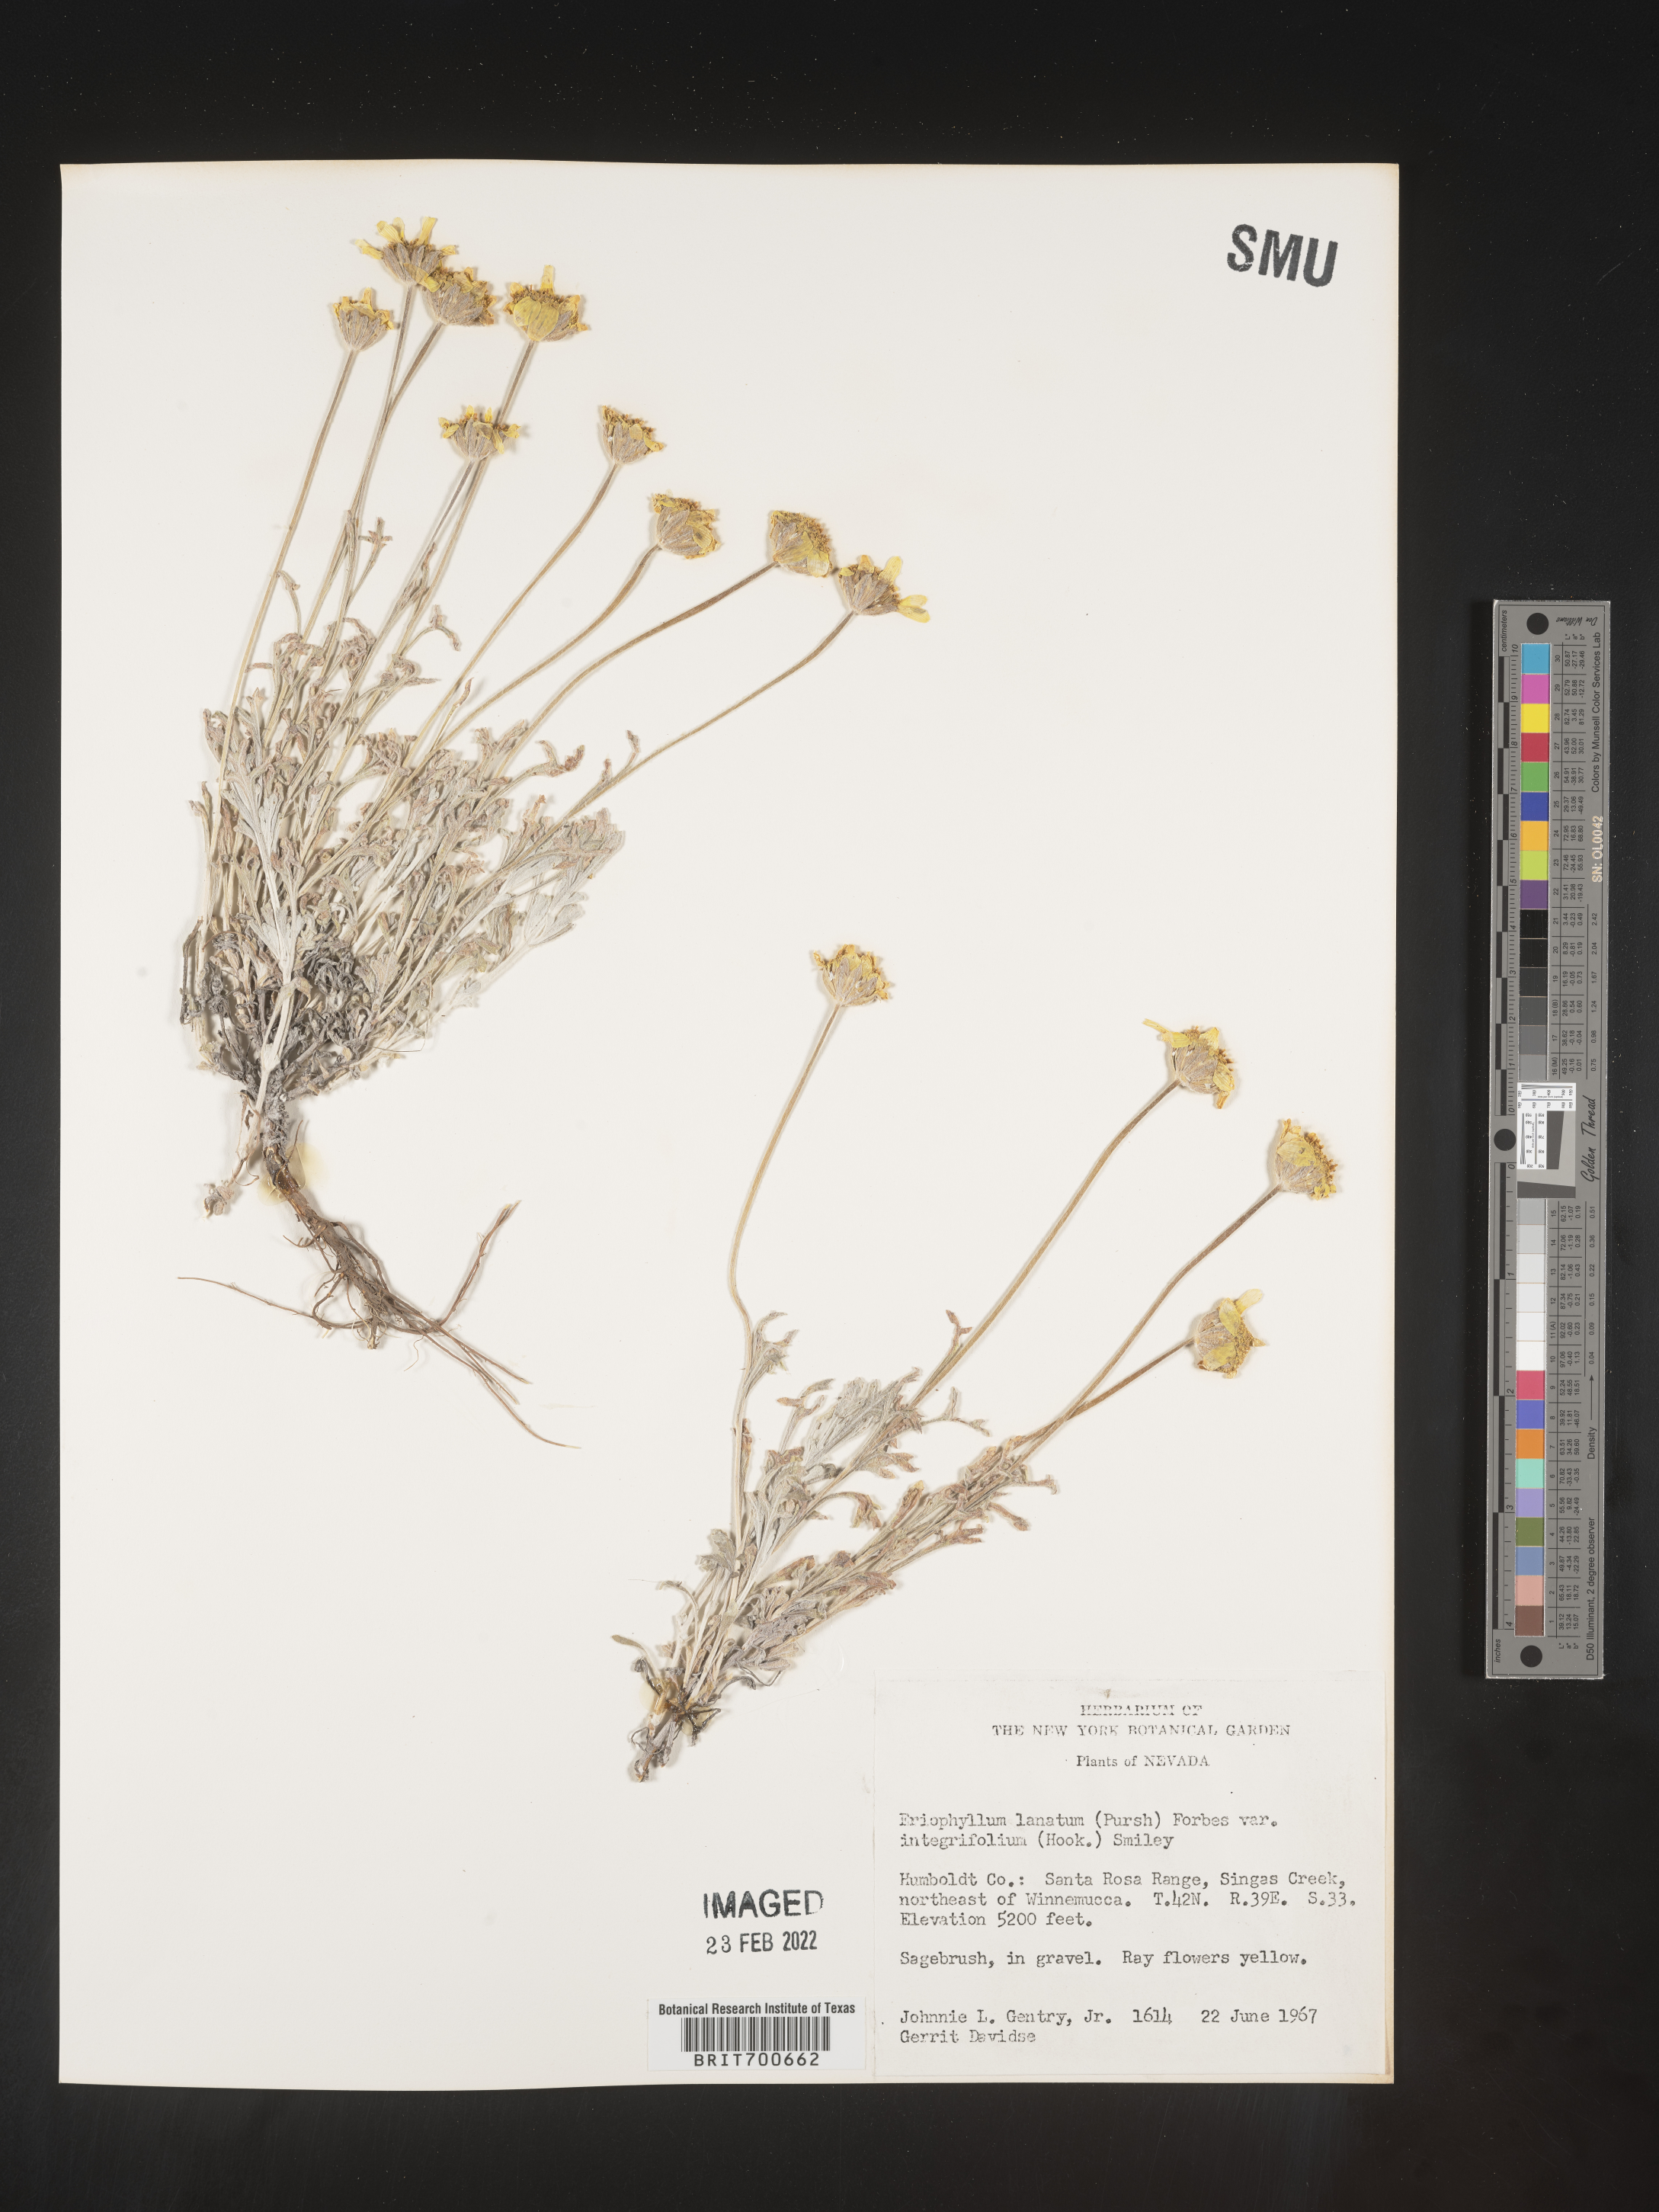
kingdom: Plantae
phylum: Tracheophyta
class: Magnoliopsida
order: Asterales
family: Asteraceae
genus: Eriophyllum
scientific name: Eriophyllum lanatum
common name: Common woolly-sunflower
